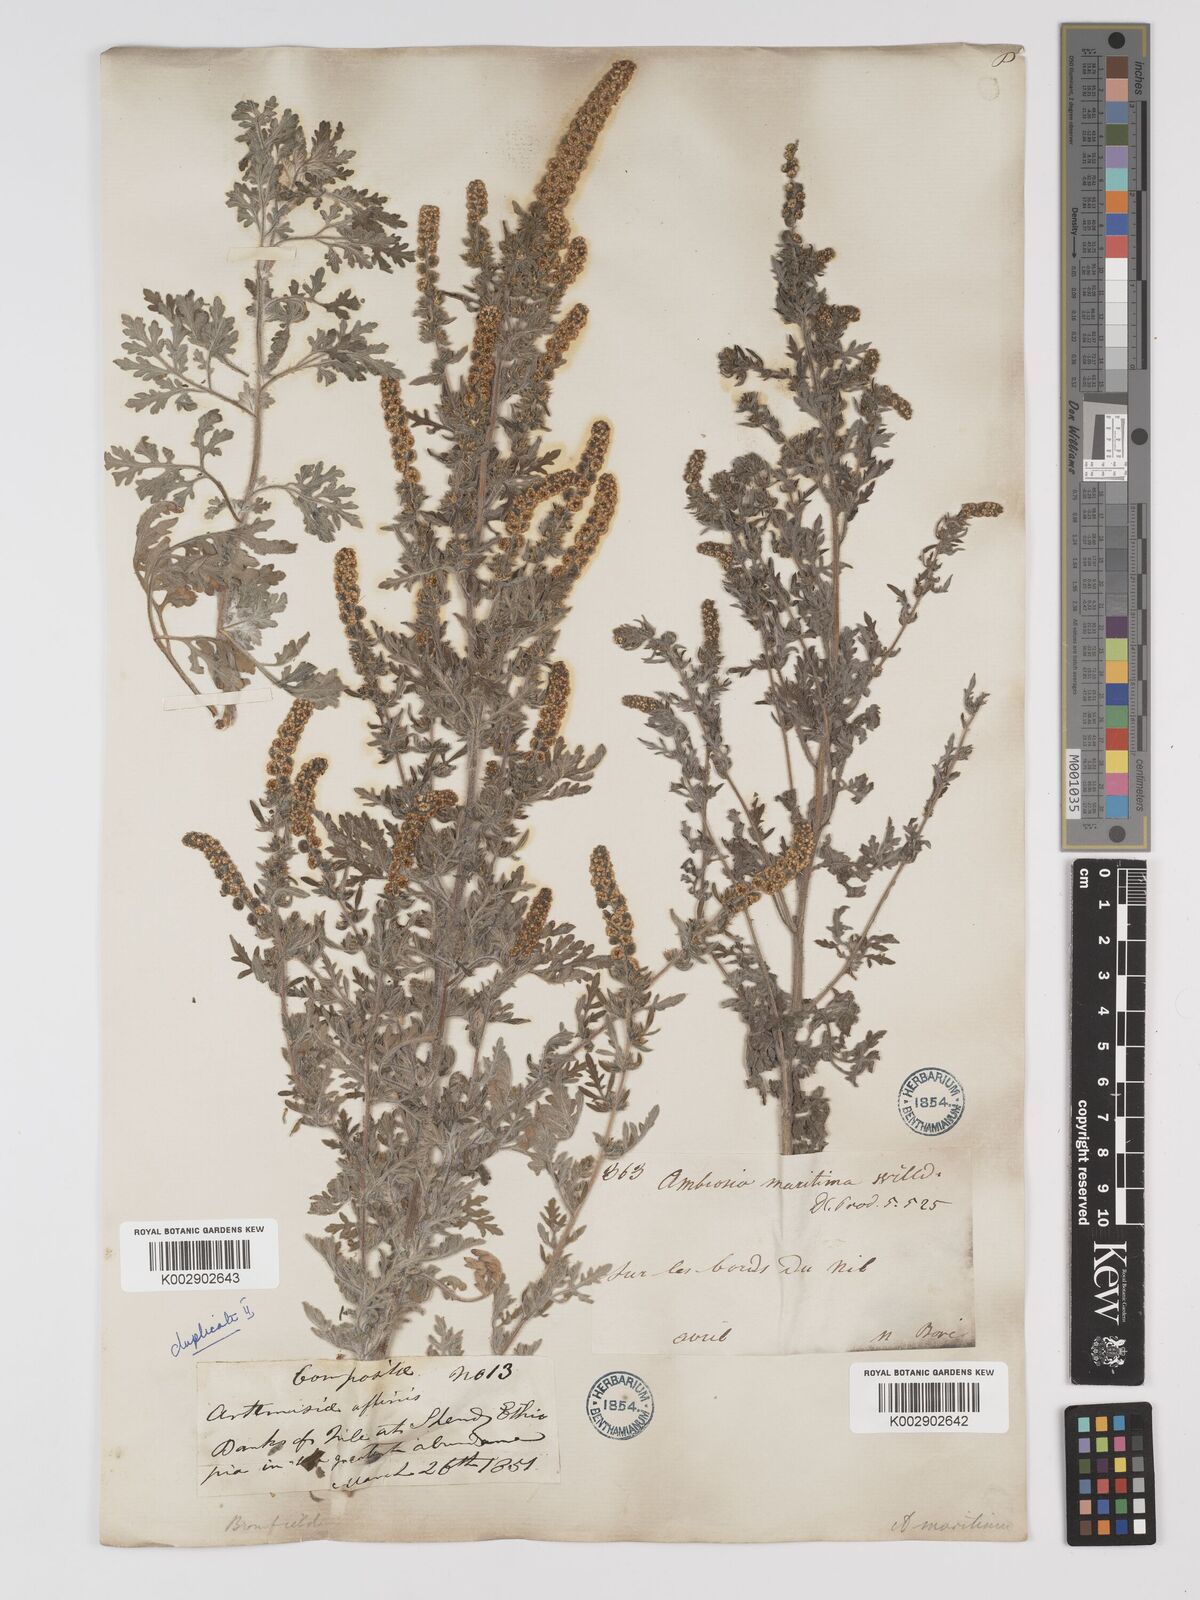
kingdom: Plantae
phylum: Tracheophyta
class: Magnoliopsida
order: Asterales
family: Asteraceae
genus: Ambrosia
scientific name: Ambrosia maritima
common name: Sea ambrosia
